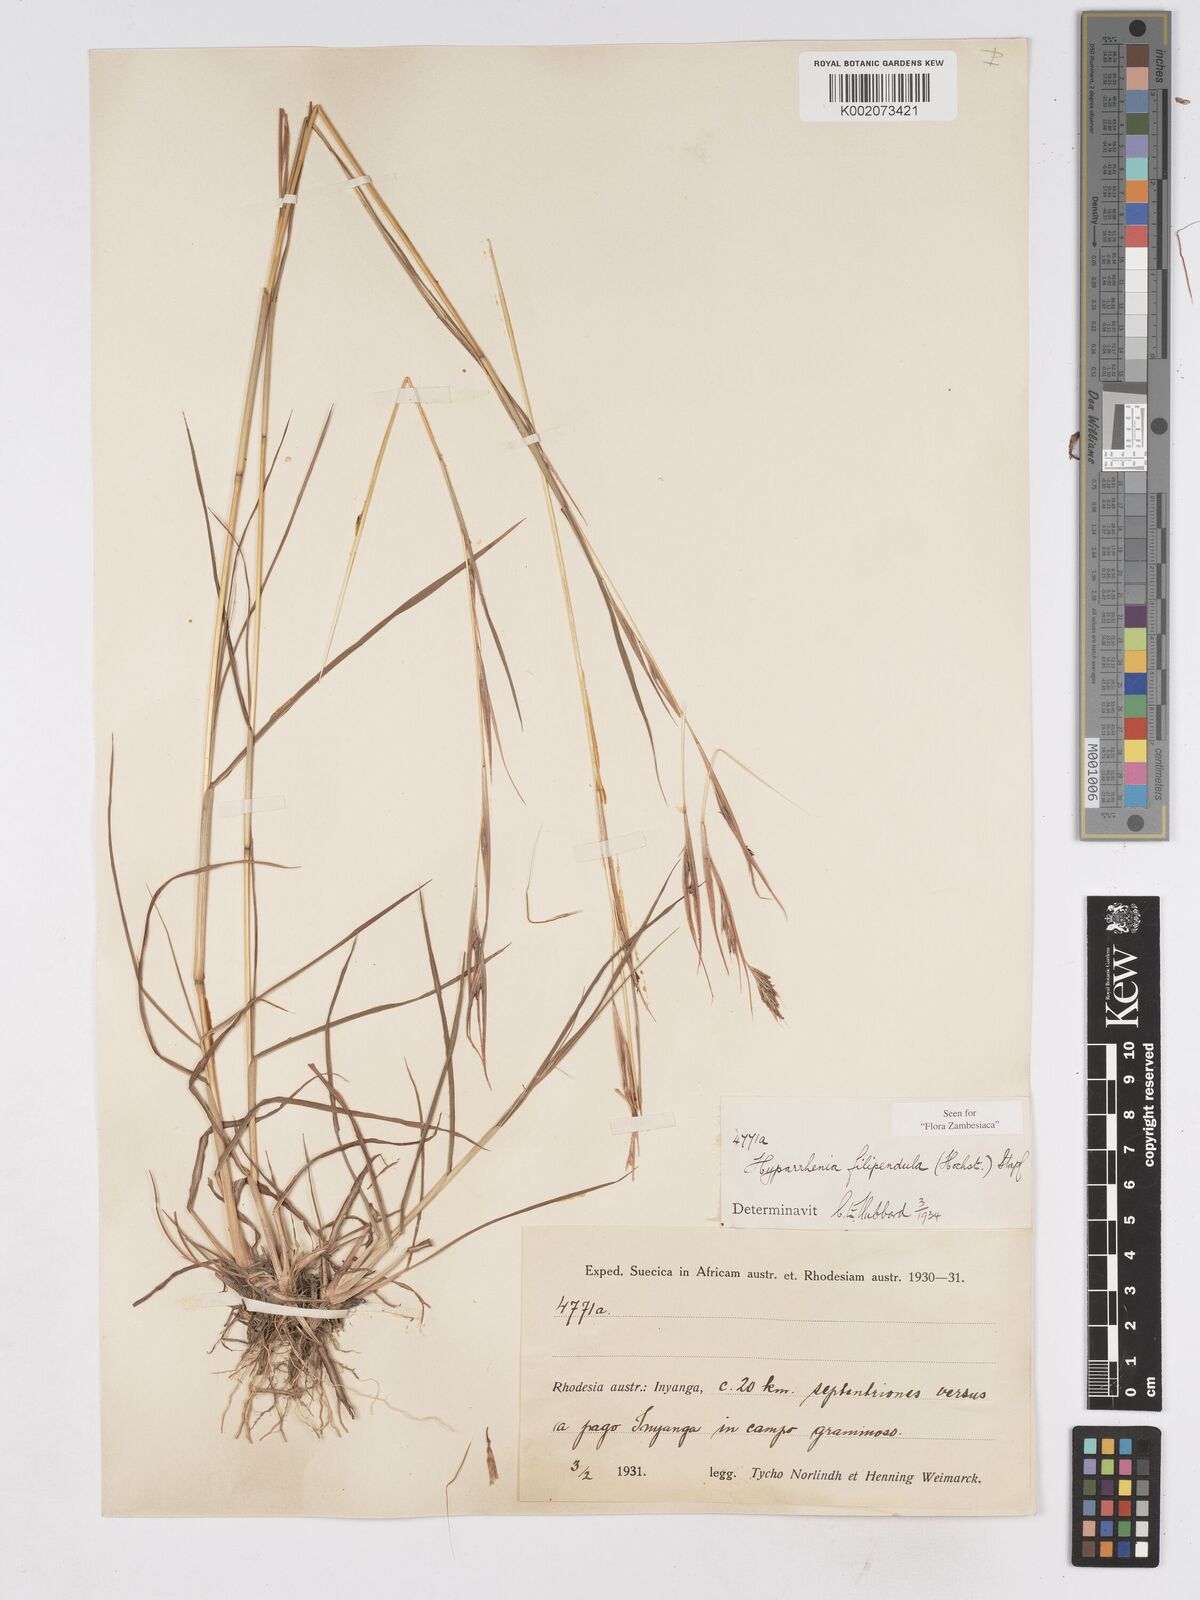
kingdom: Plantae
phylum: Tracheophyta
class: Liliopsida
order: Poales
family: Poaceae
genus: Hyparrhenia
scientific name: Hyparrhenia filipendula
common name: Tambookie grass
